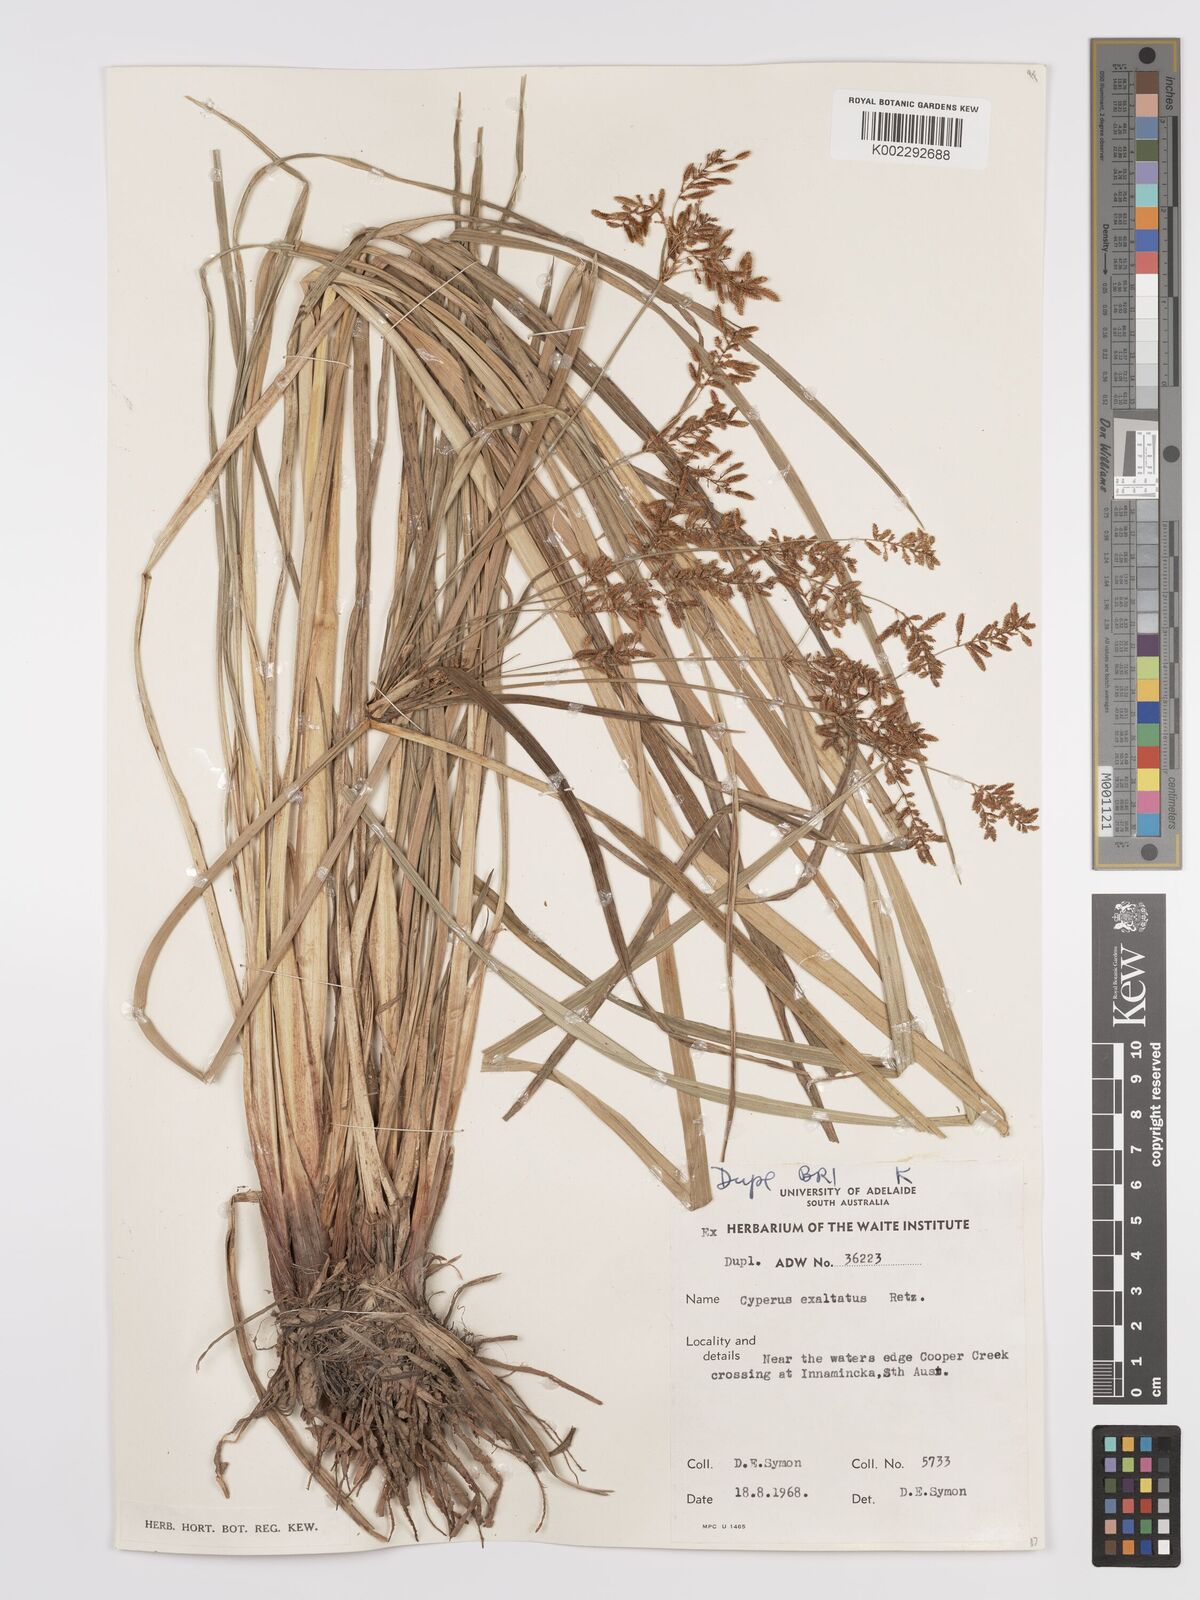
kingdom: Plantae
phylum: Tracheophyta
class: Liliopsida
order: Poales
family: Cyperaceae
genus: Cyperus
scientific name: Cyperus exaltatus
